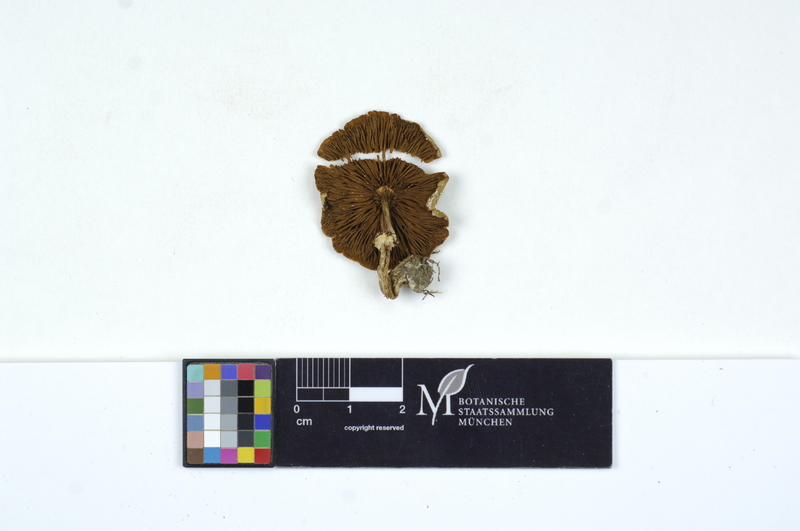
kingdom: Fungi
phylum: Basidiomycota
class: Agaricomycetes
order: Agaricales
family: Hymenogastraceae
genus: Psilocybe
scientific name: Psilocybe coronilla
